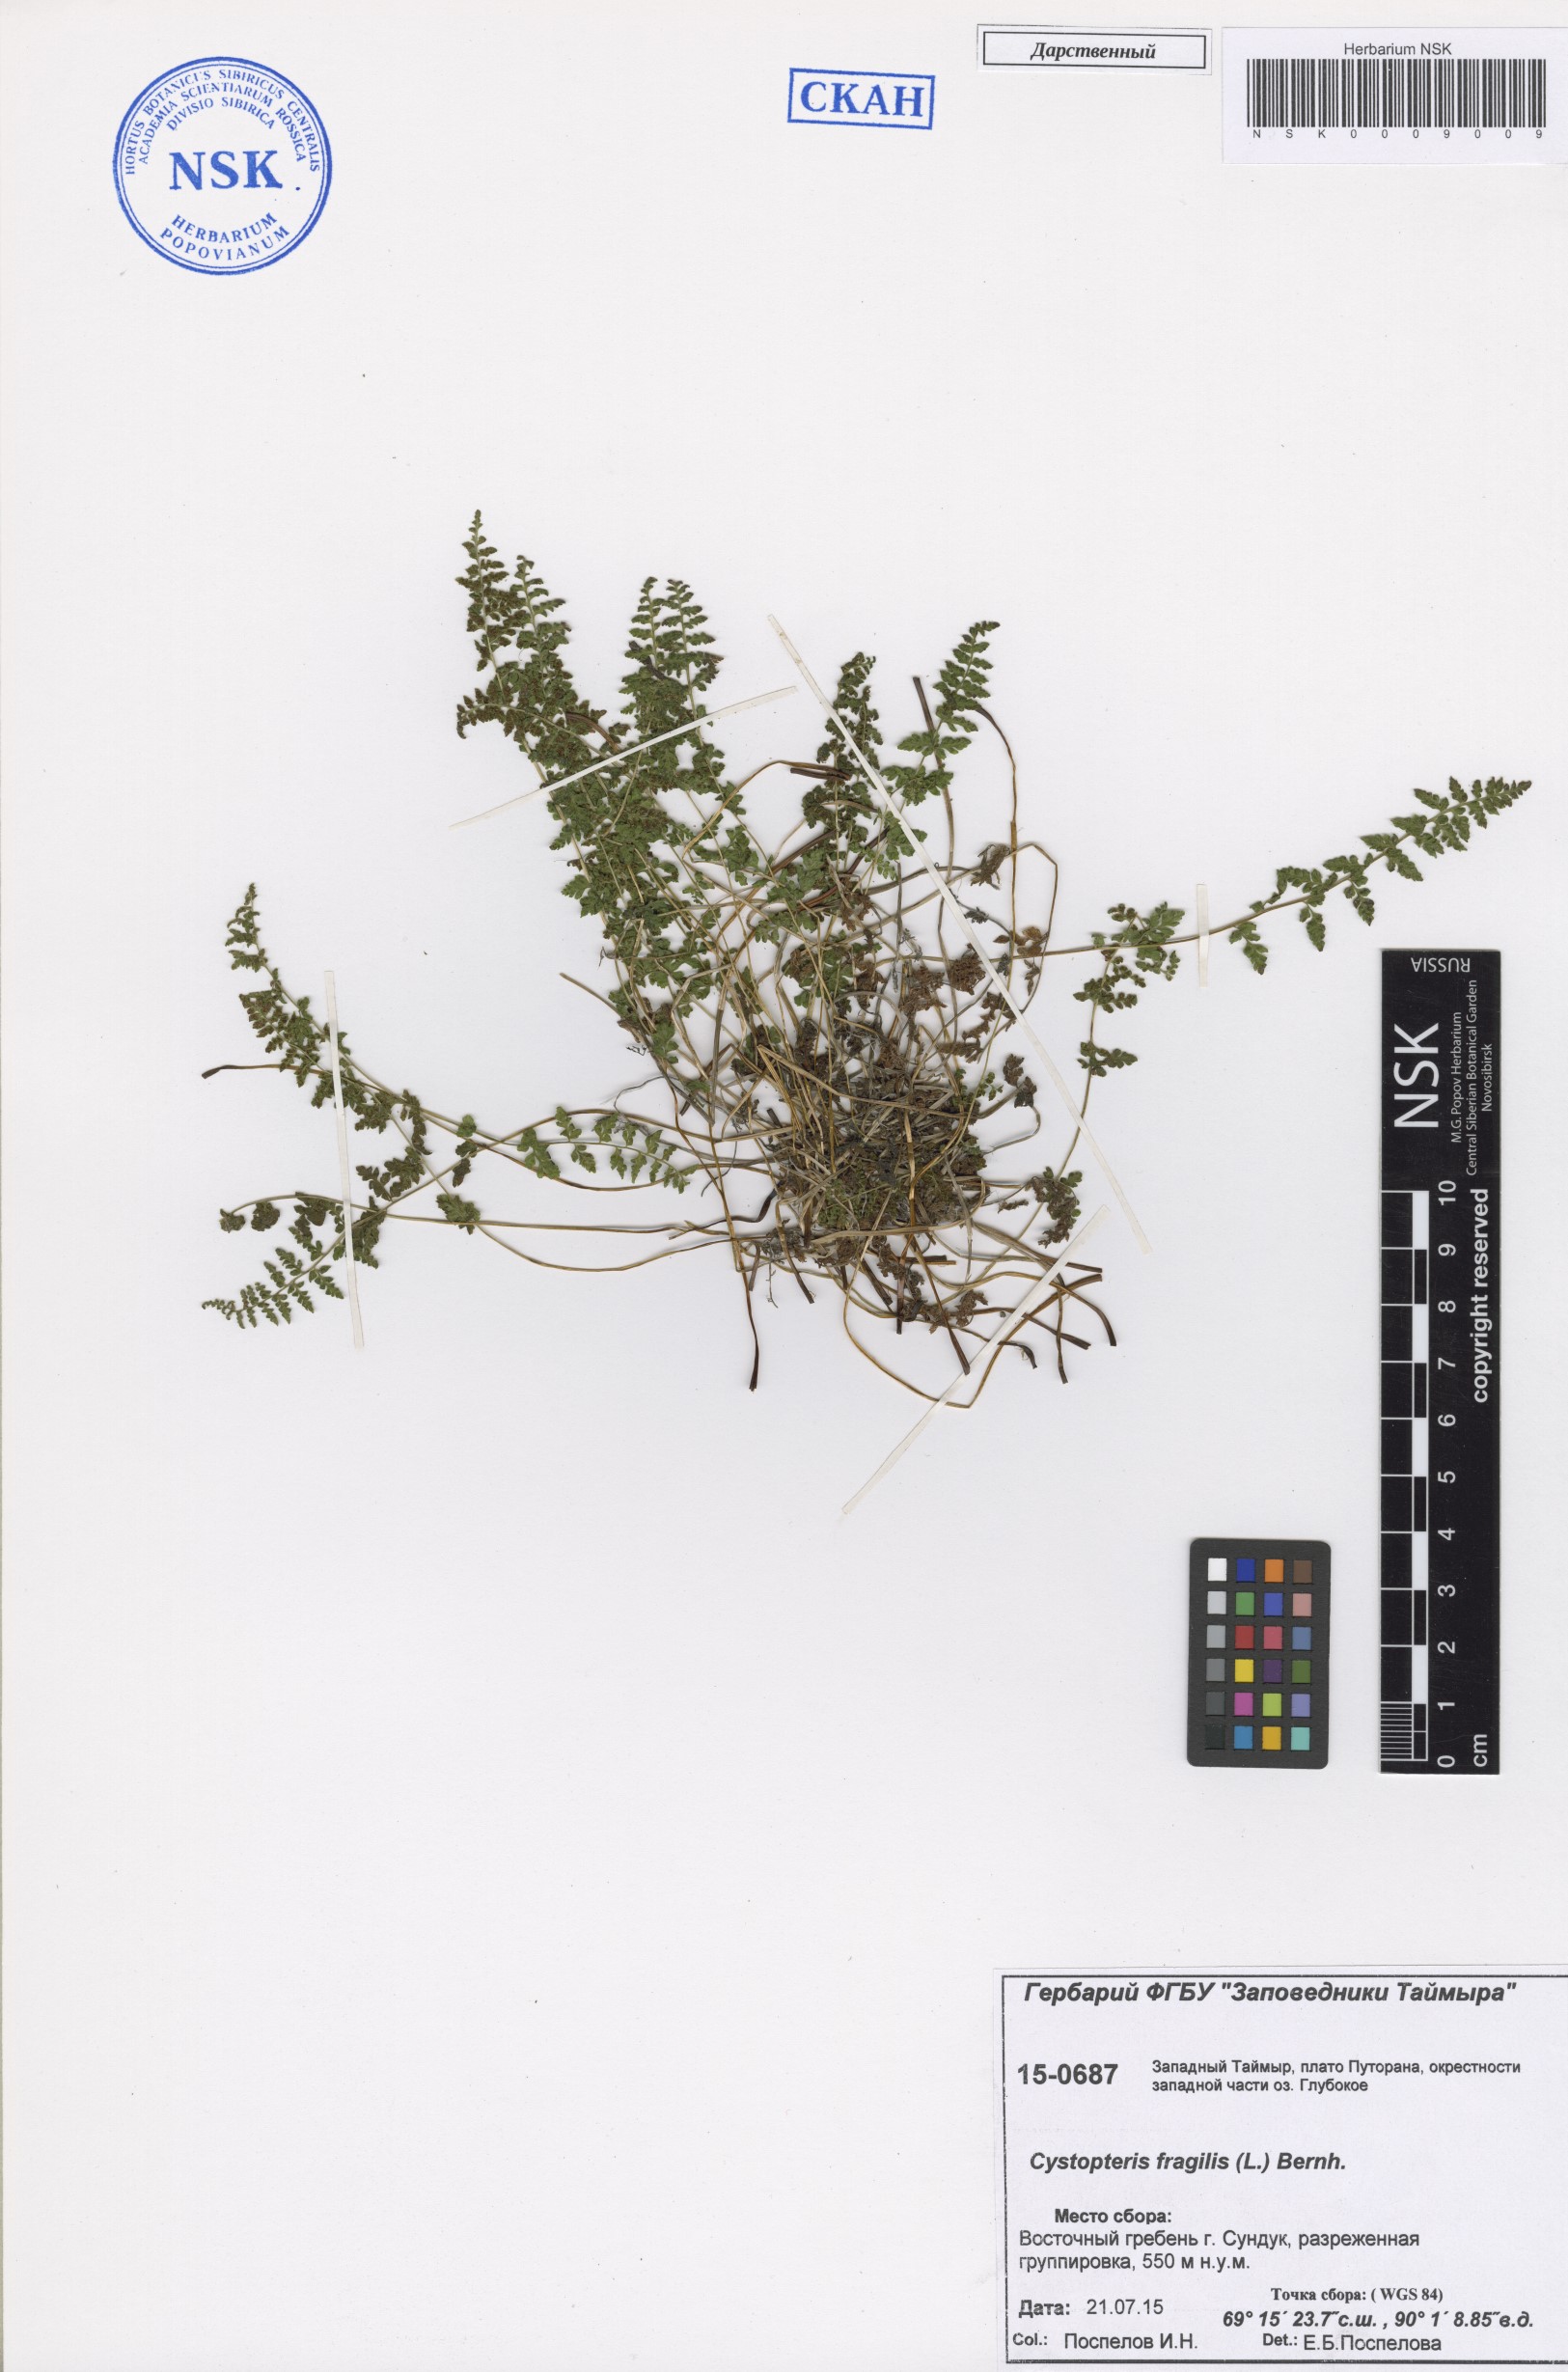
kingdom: Plantae
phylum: Tracheophyta
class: Polypodiopsida
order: Polypodiales
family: Cystopteridaceae
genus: Cystopteris
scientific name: Cystopteris fragilis
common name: Brittle bladder fern
